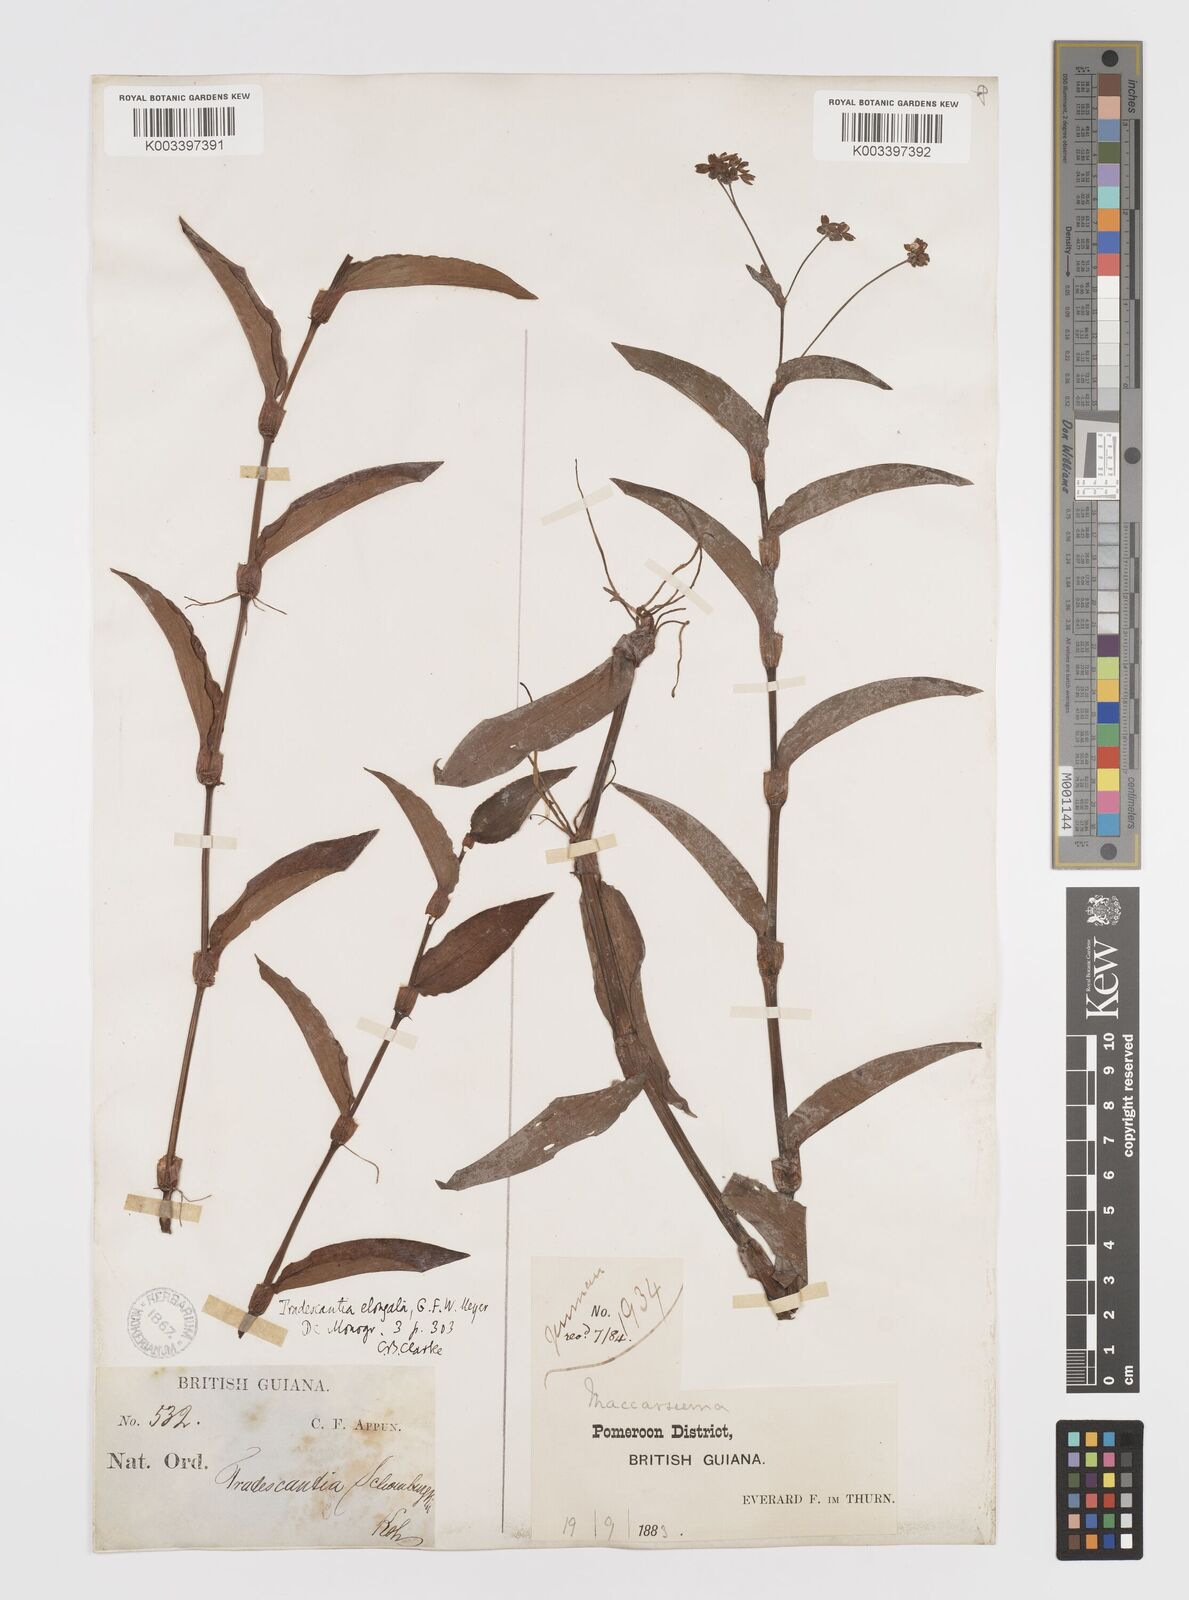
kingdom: Plantae
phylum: Tracheophyta
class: Liliopsida
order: Commelinales
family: Commelinaceae
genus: Callisia
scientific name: Callisia serrulata
